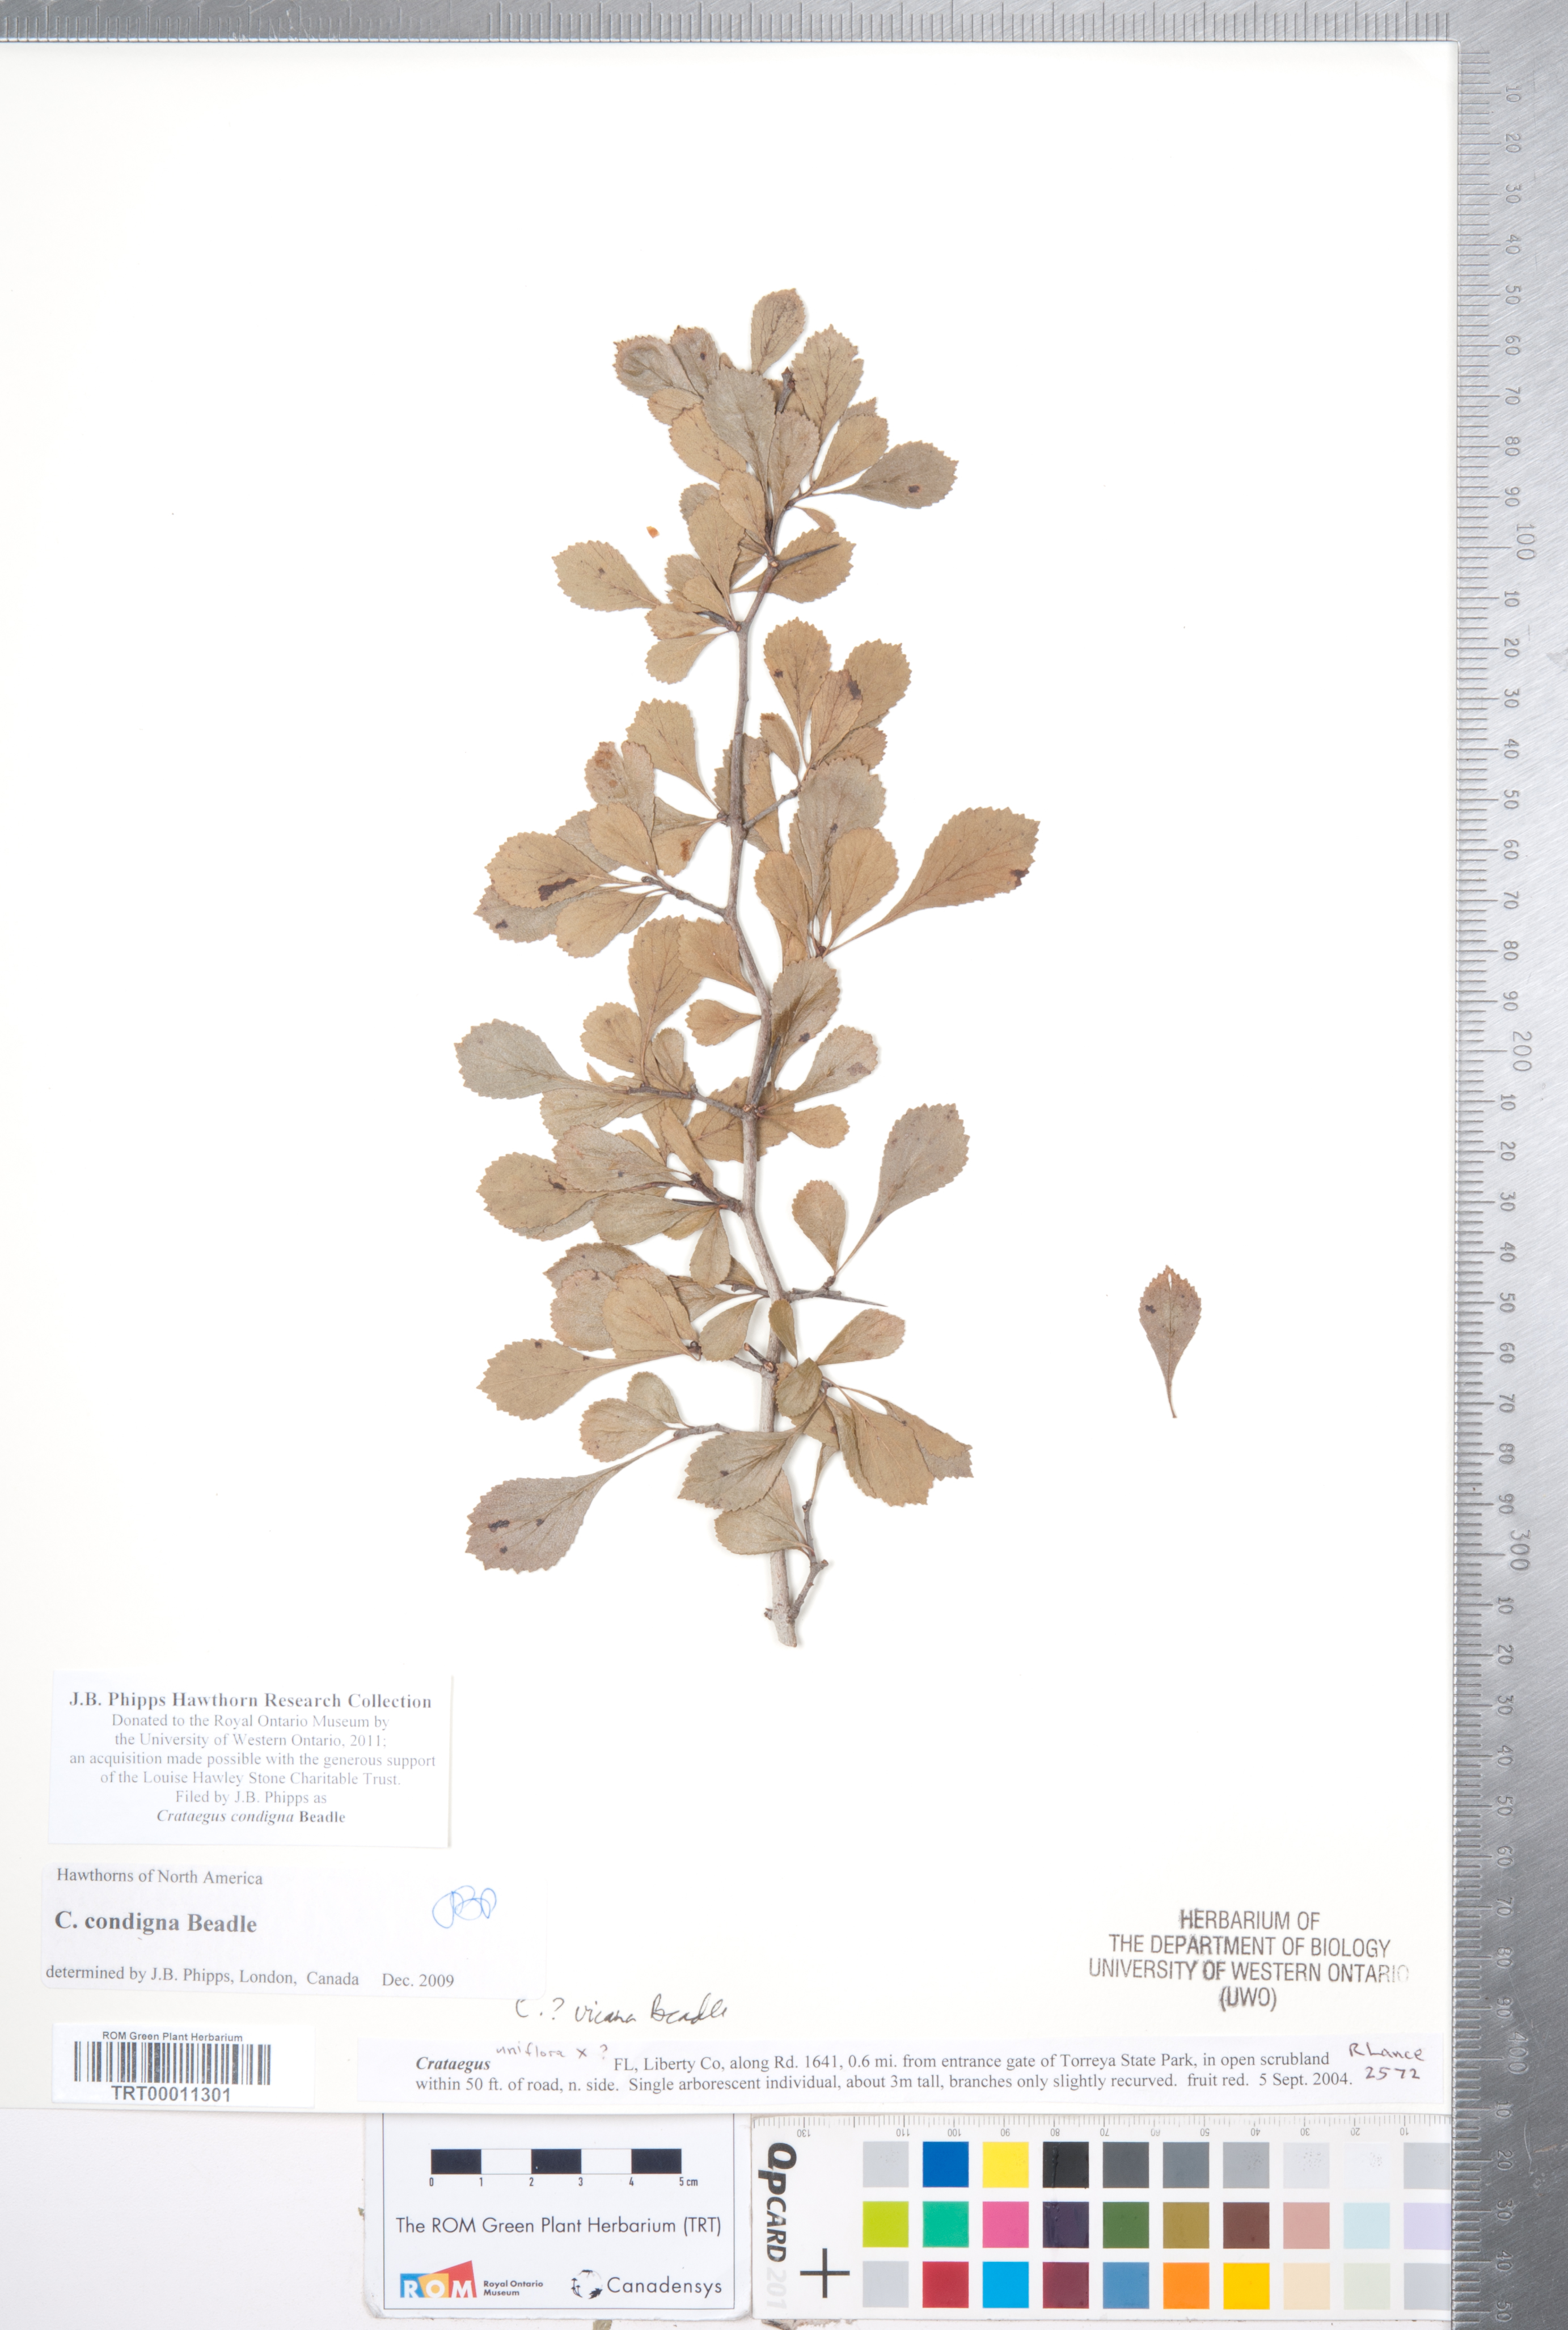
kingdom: Plantae
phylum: Tracheophyta
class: Magnoliopsida
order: Rosales
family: Rosaceae
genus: Crataegus
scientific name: Crataegus condigna
